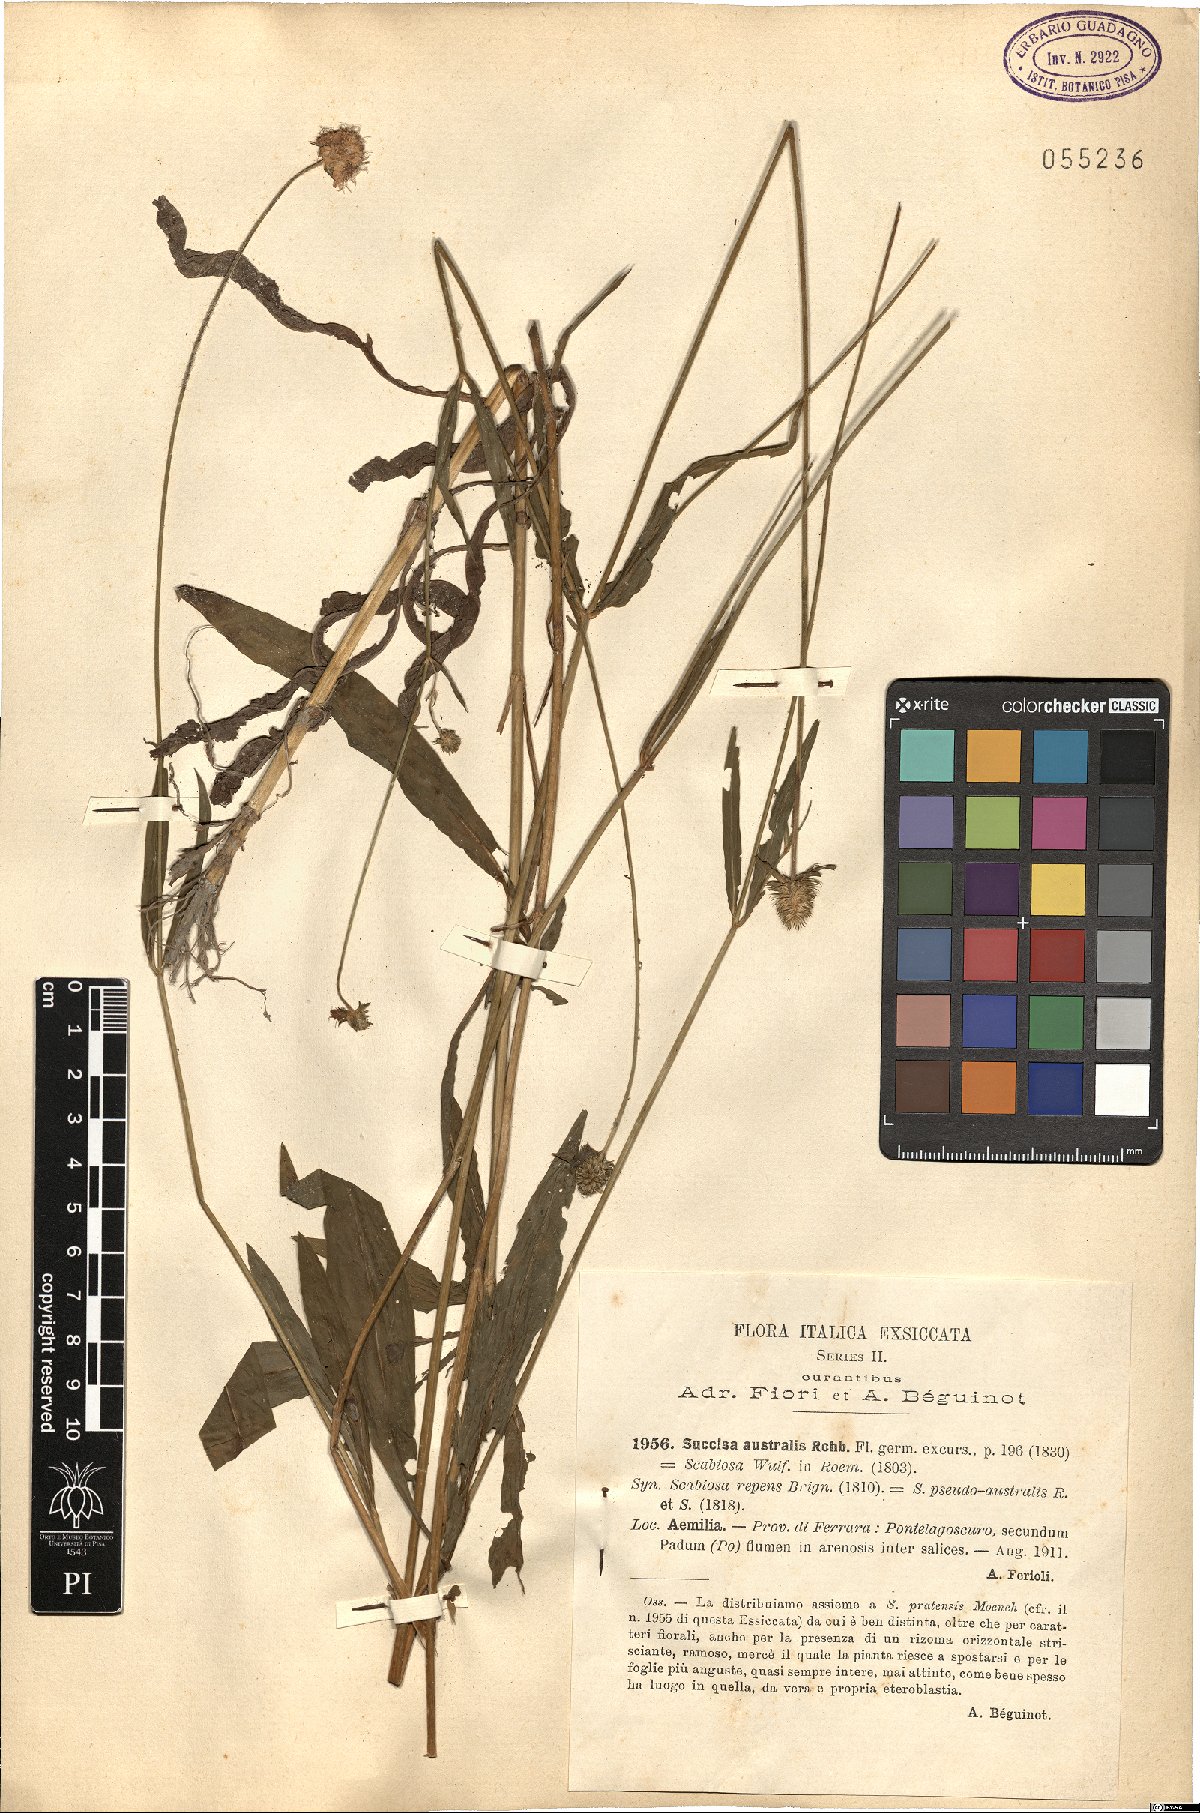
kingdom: Plantae
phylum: Tracheophyta
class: Magnoliopsida
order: Dipsacales
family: Caprifoliaceae
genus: Succisella
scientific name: Succisella inflexa
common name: Southern succisella
